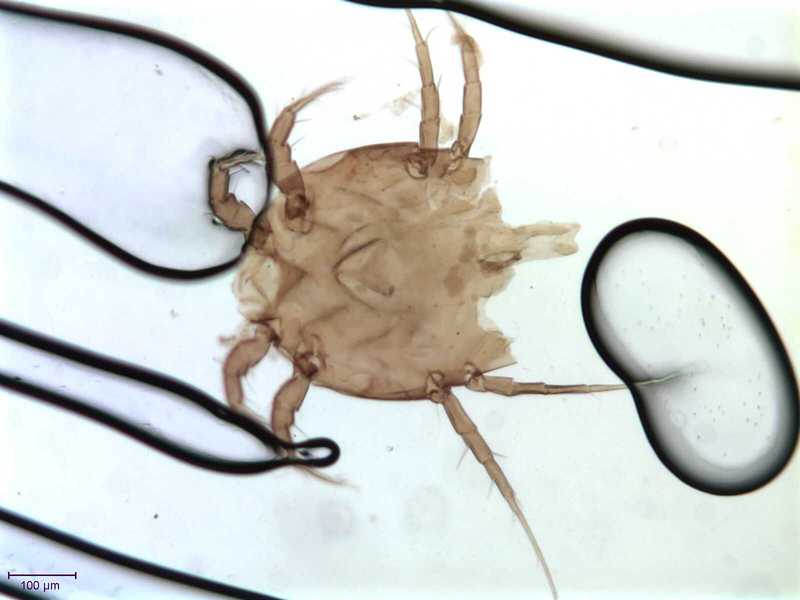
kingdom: Animalia
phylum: Arthropoda
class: Arachnida
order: Sarcoptiformes
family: Algophagidae
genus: Fusohericia
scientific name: Fusohericia incredibilis
